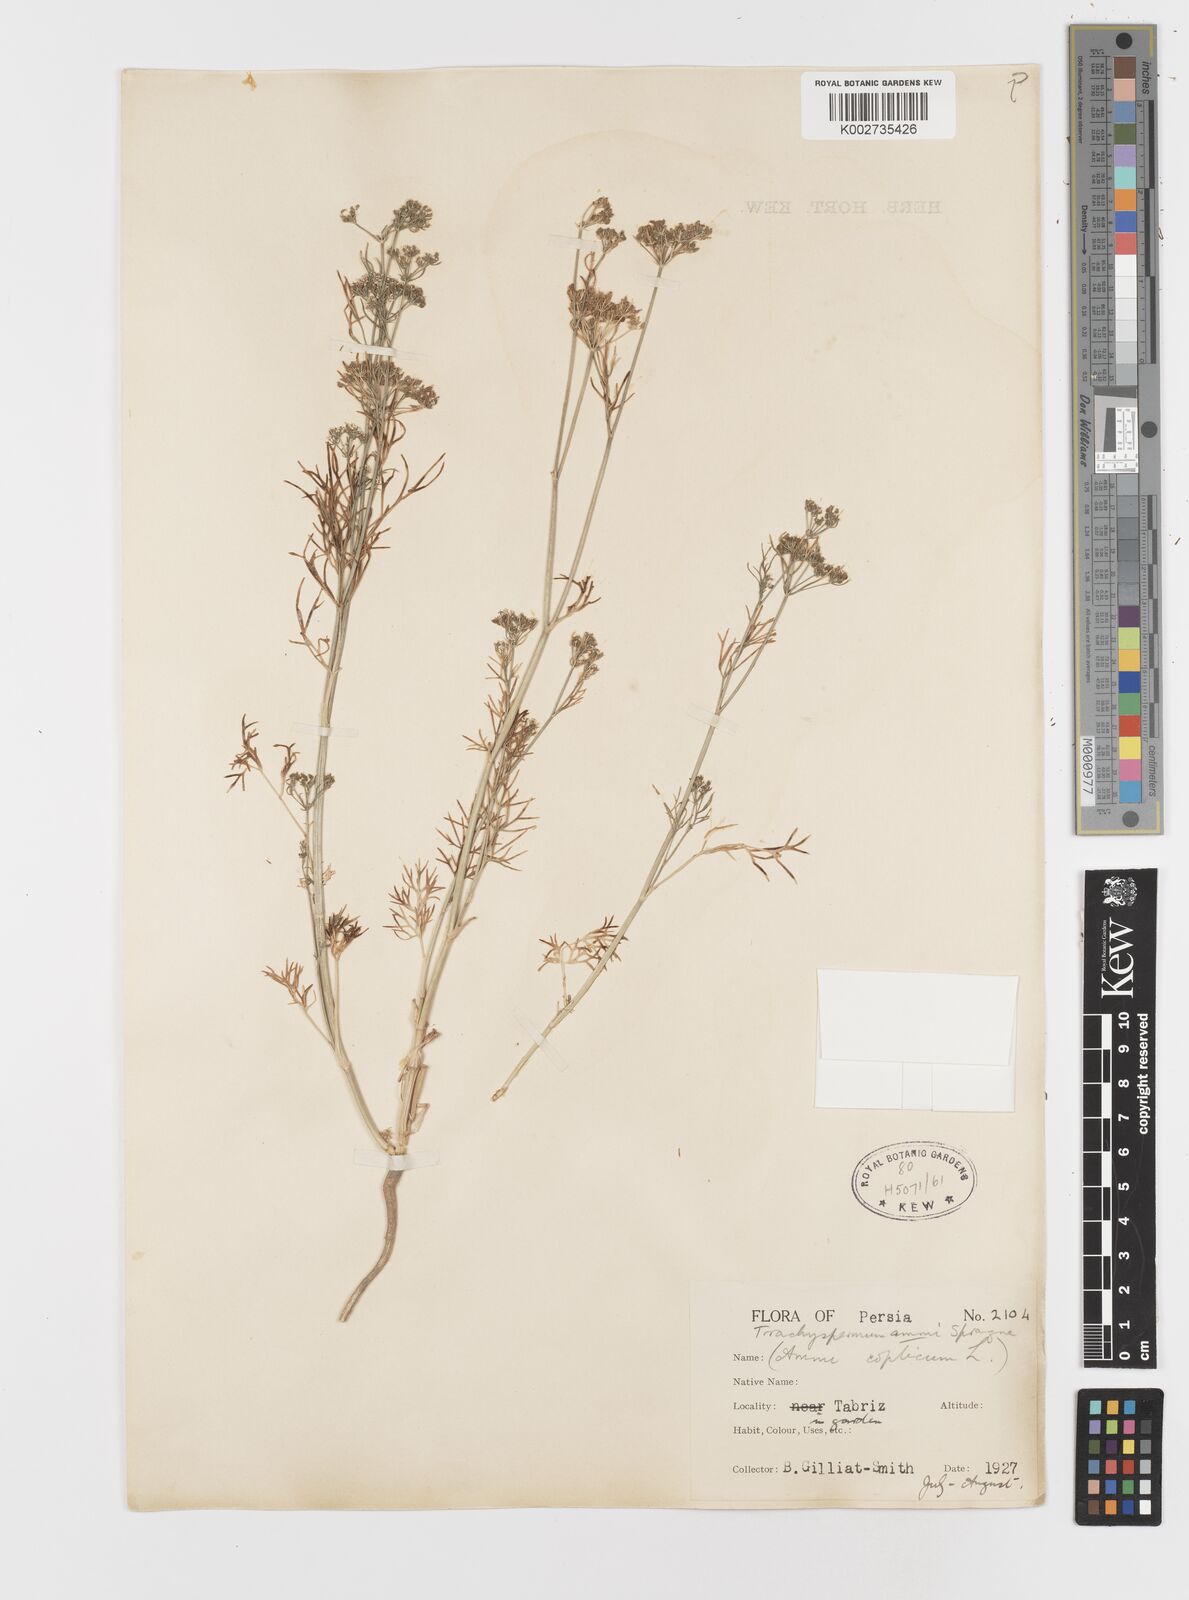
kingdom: Plantae
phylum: Tracheophyta
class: Magnoliopsida
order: Apiales
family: Apiaceae
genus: Trachyspermum
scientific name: Trachyspermum ammi
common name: Ajowan
